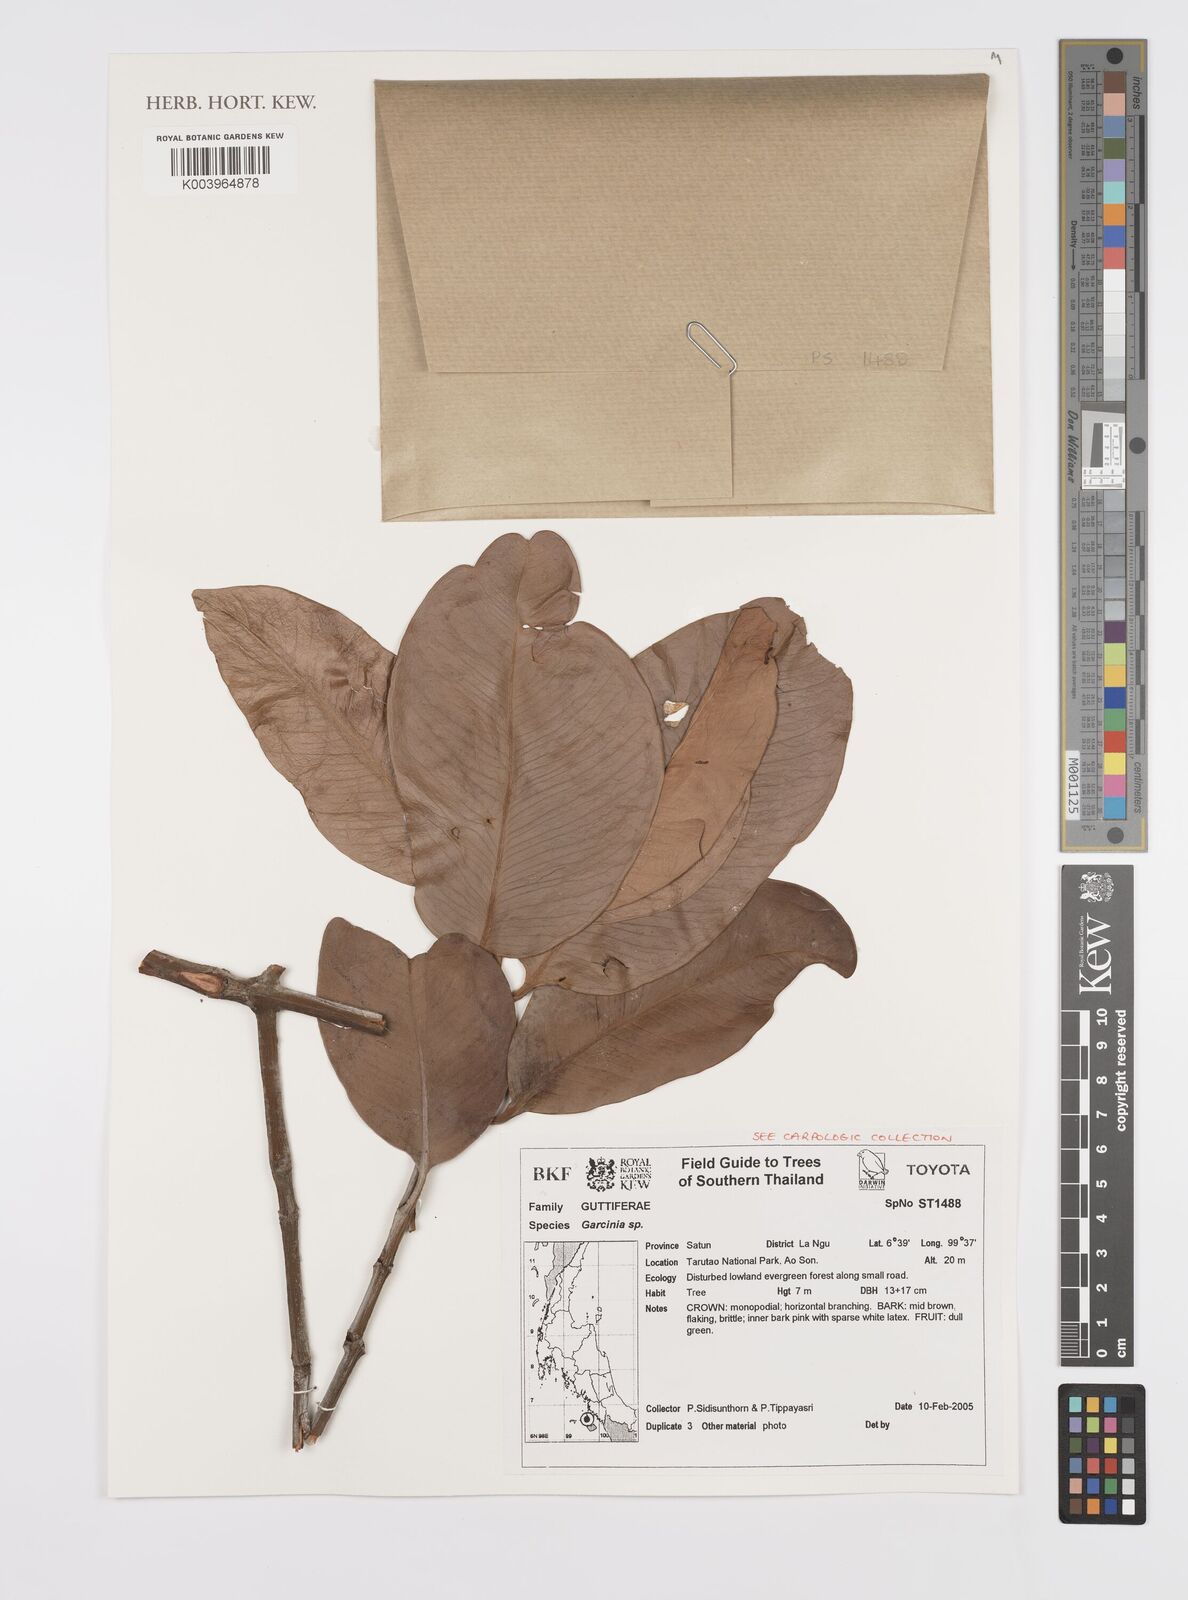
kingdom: Plantae
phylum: Tracheophyta
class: Magnoliopsida
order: Malpighiales
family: Clusiaceae
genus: Garcinia
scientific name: Garcinia
